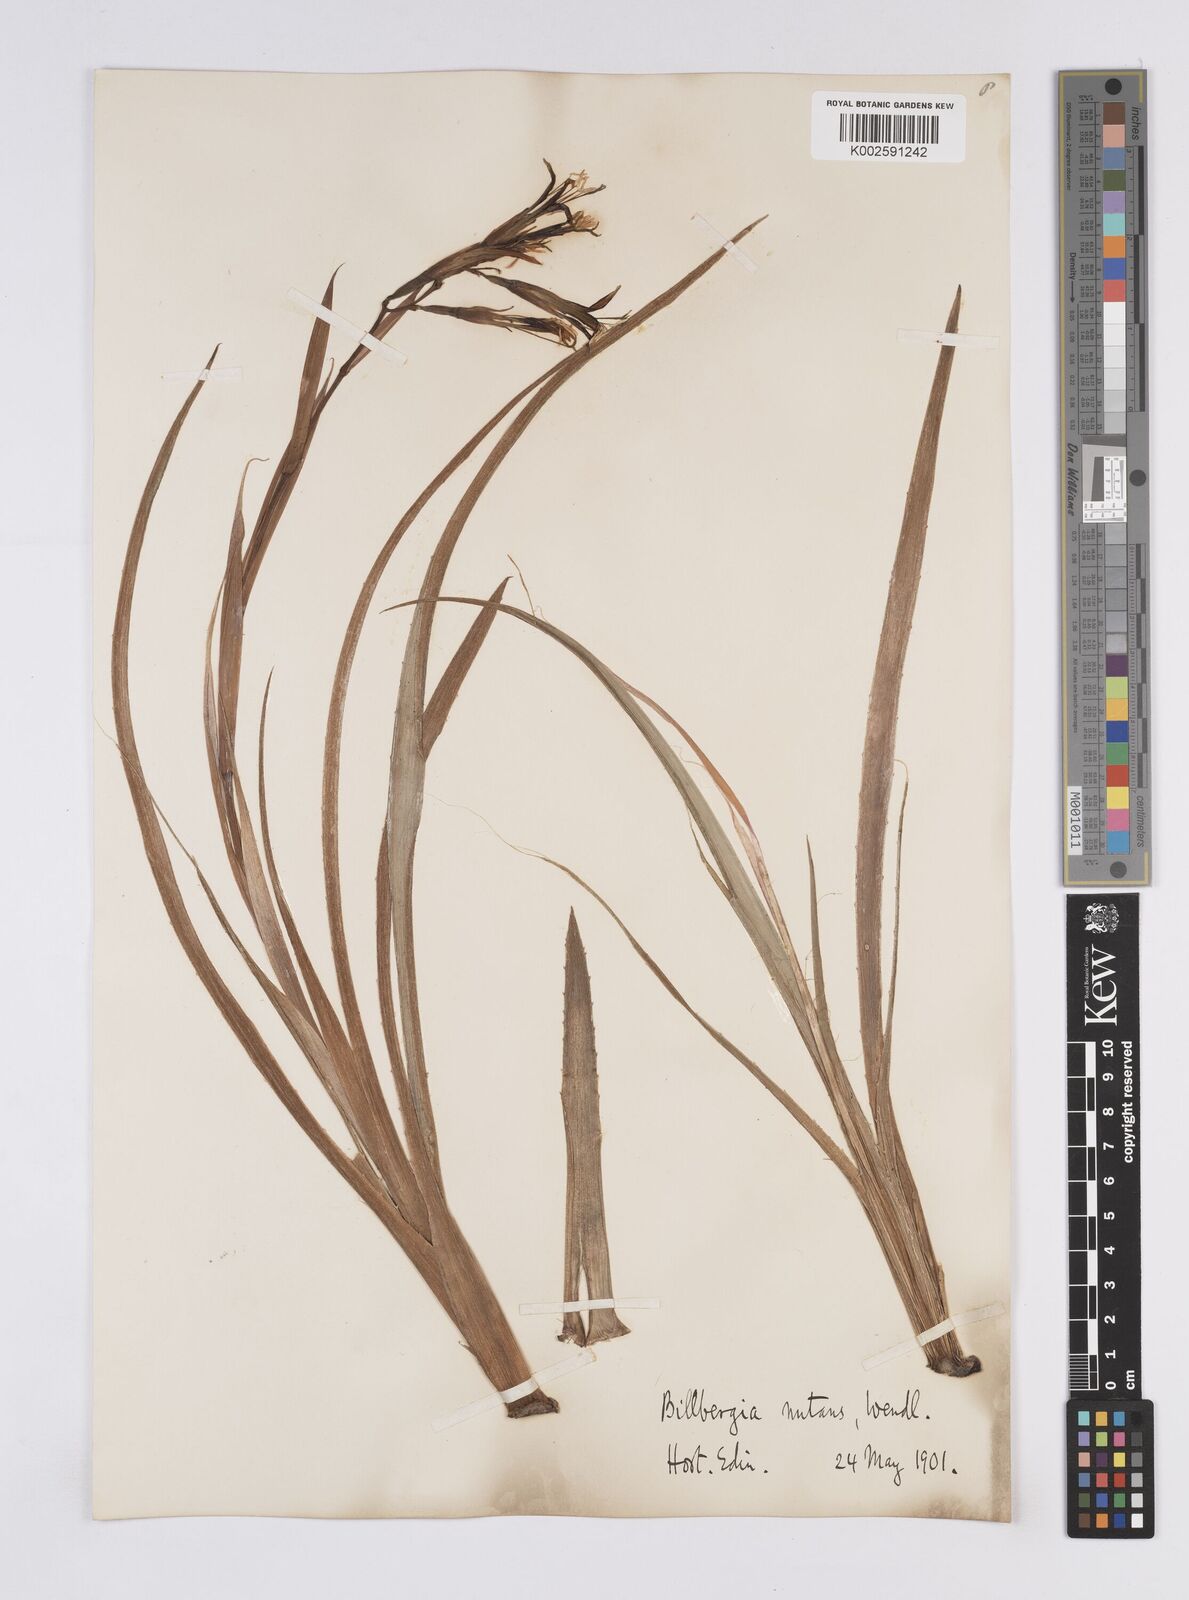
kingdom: Plantae
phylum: Tracheophyta
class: Liliopsida
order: Poales
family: Bromeliaceae
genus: Billbergia
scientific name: Billbergia nutans
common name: Friendship-plant
